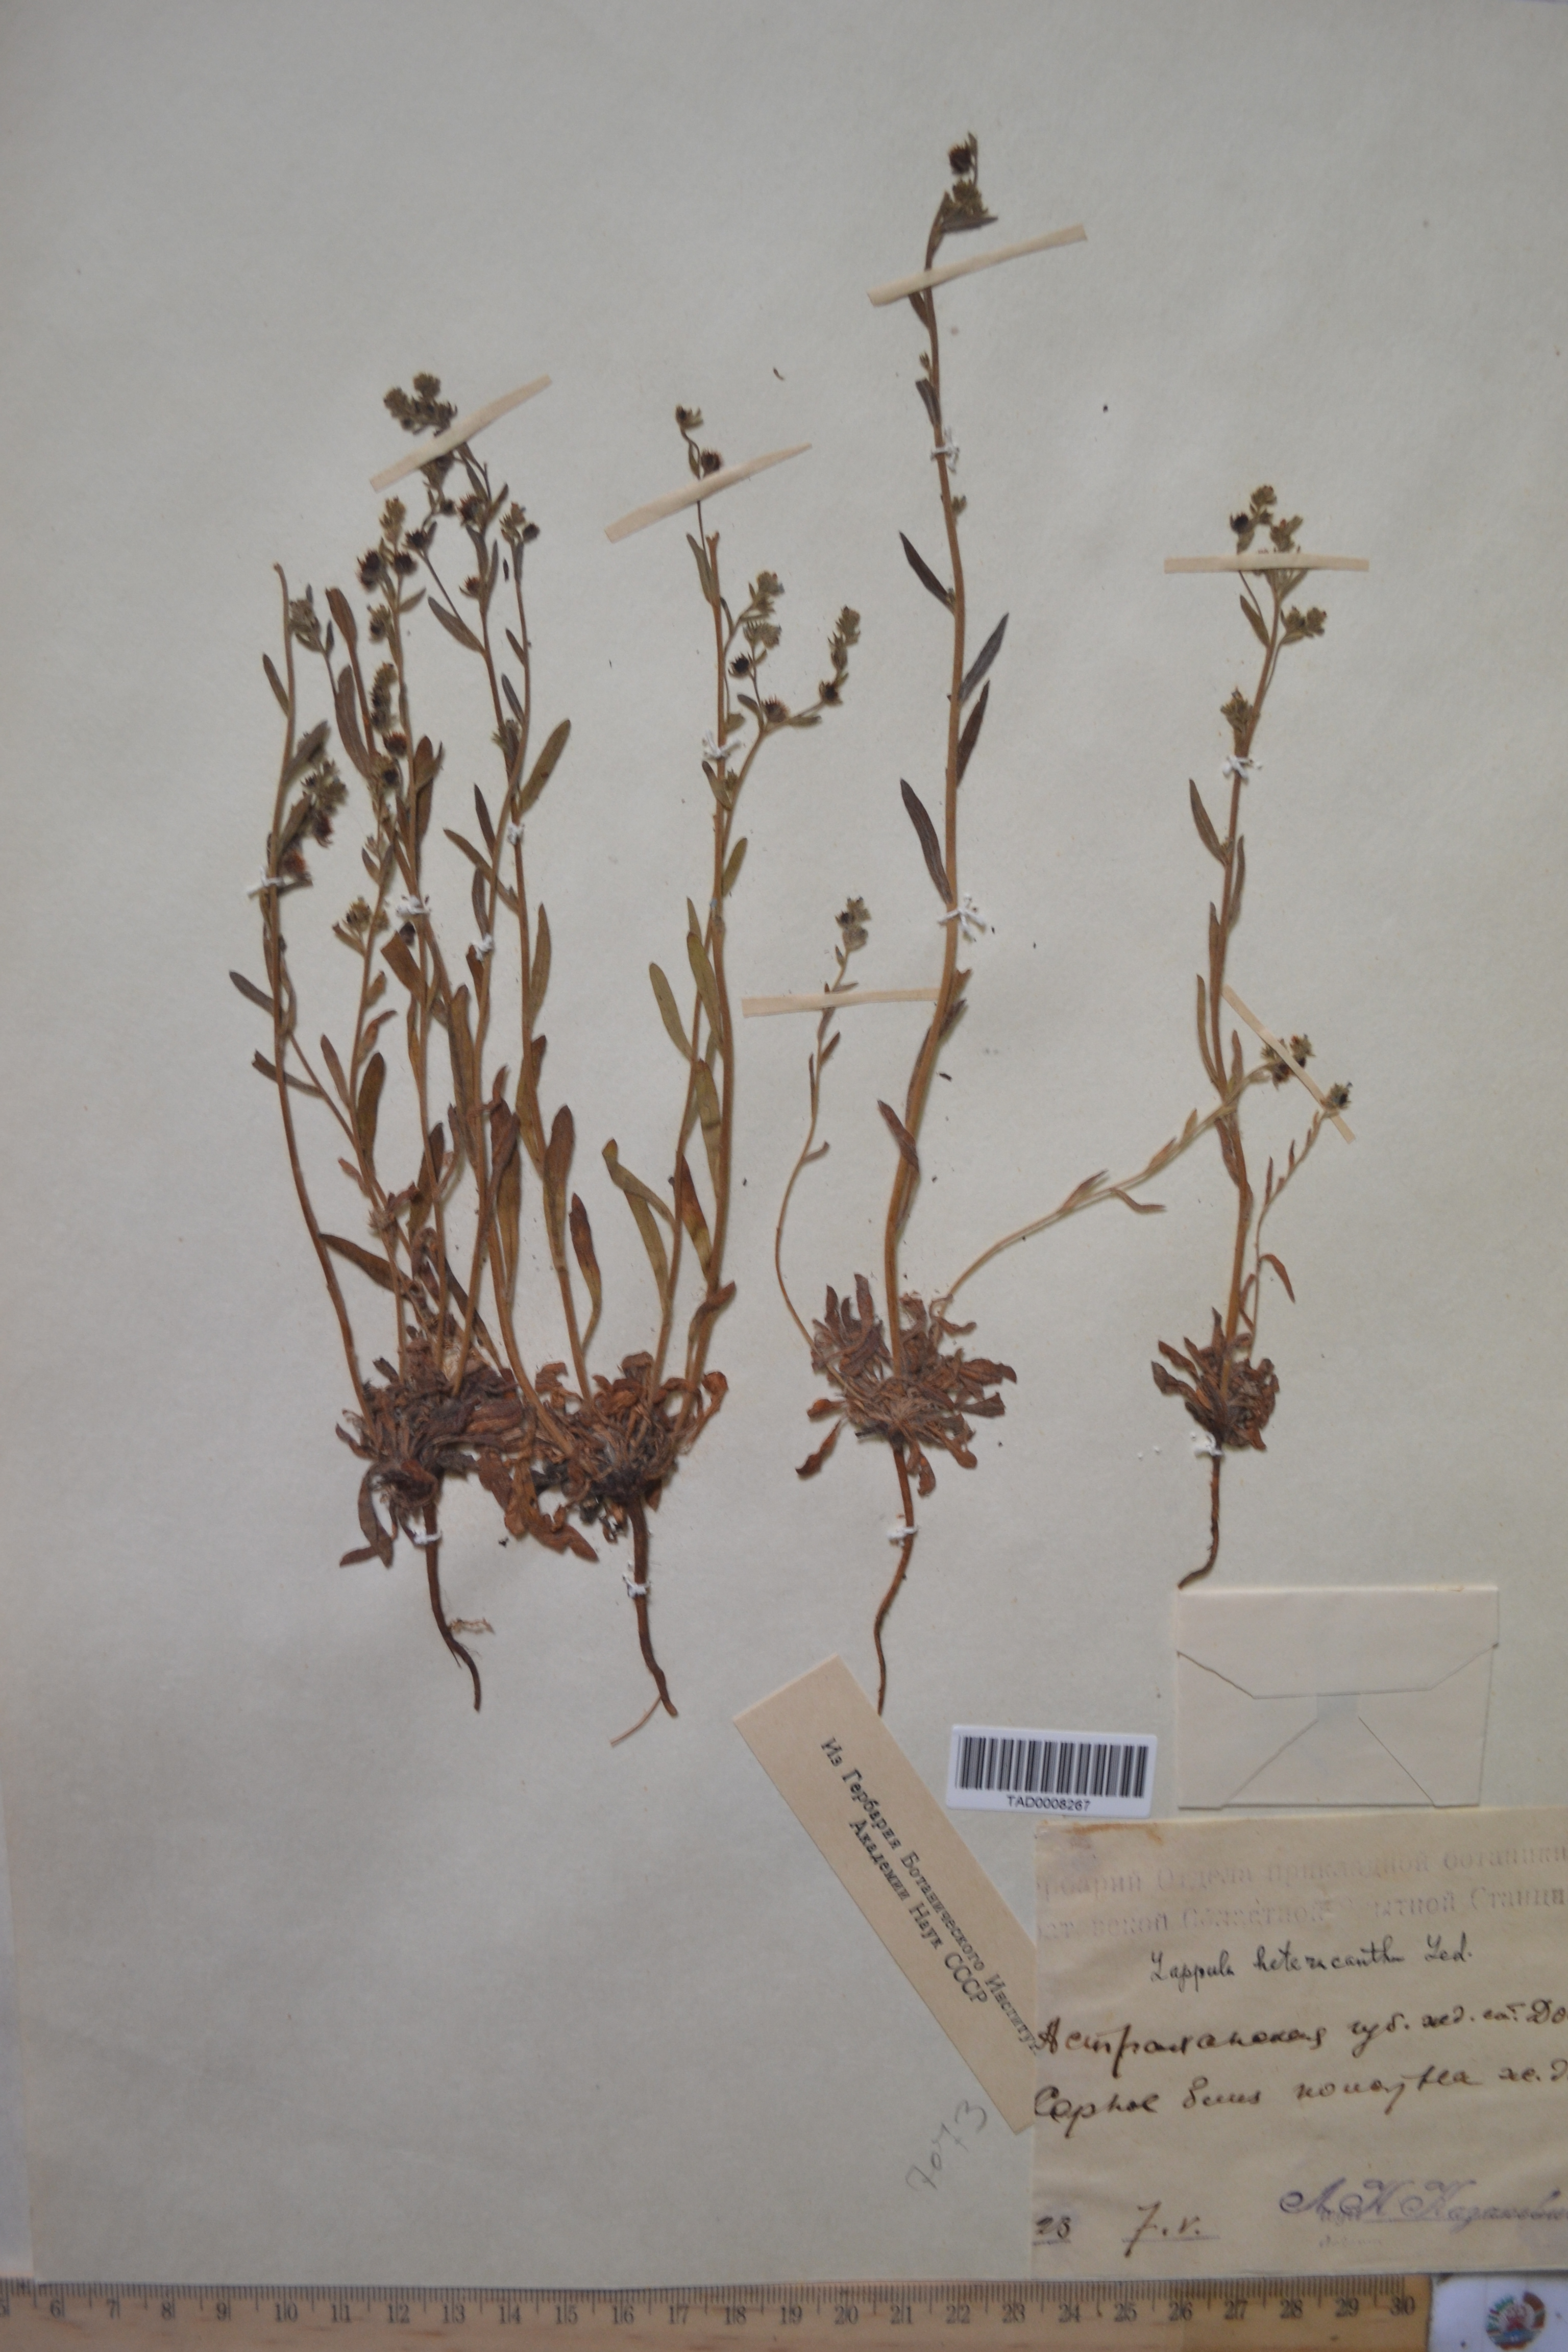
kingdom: Plantae
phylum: Tracheophyta
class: Magnoliopsida
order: Boraginales
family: Boraginaceae
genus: Lappula
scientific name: Lappula heteracantha
